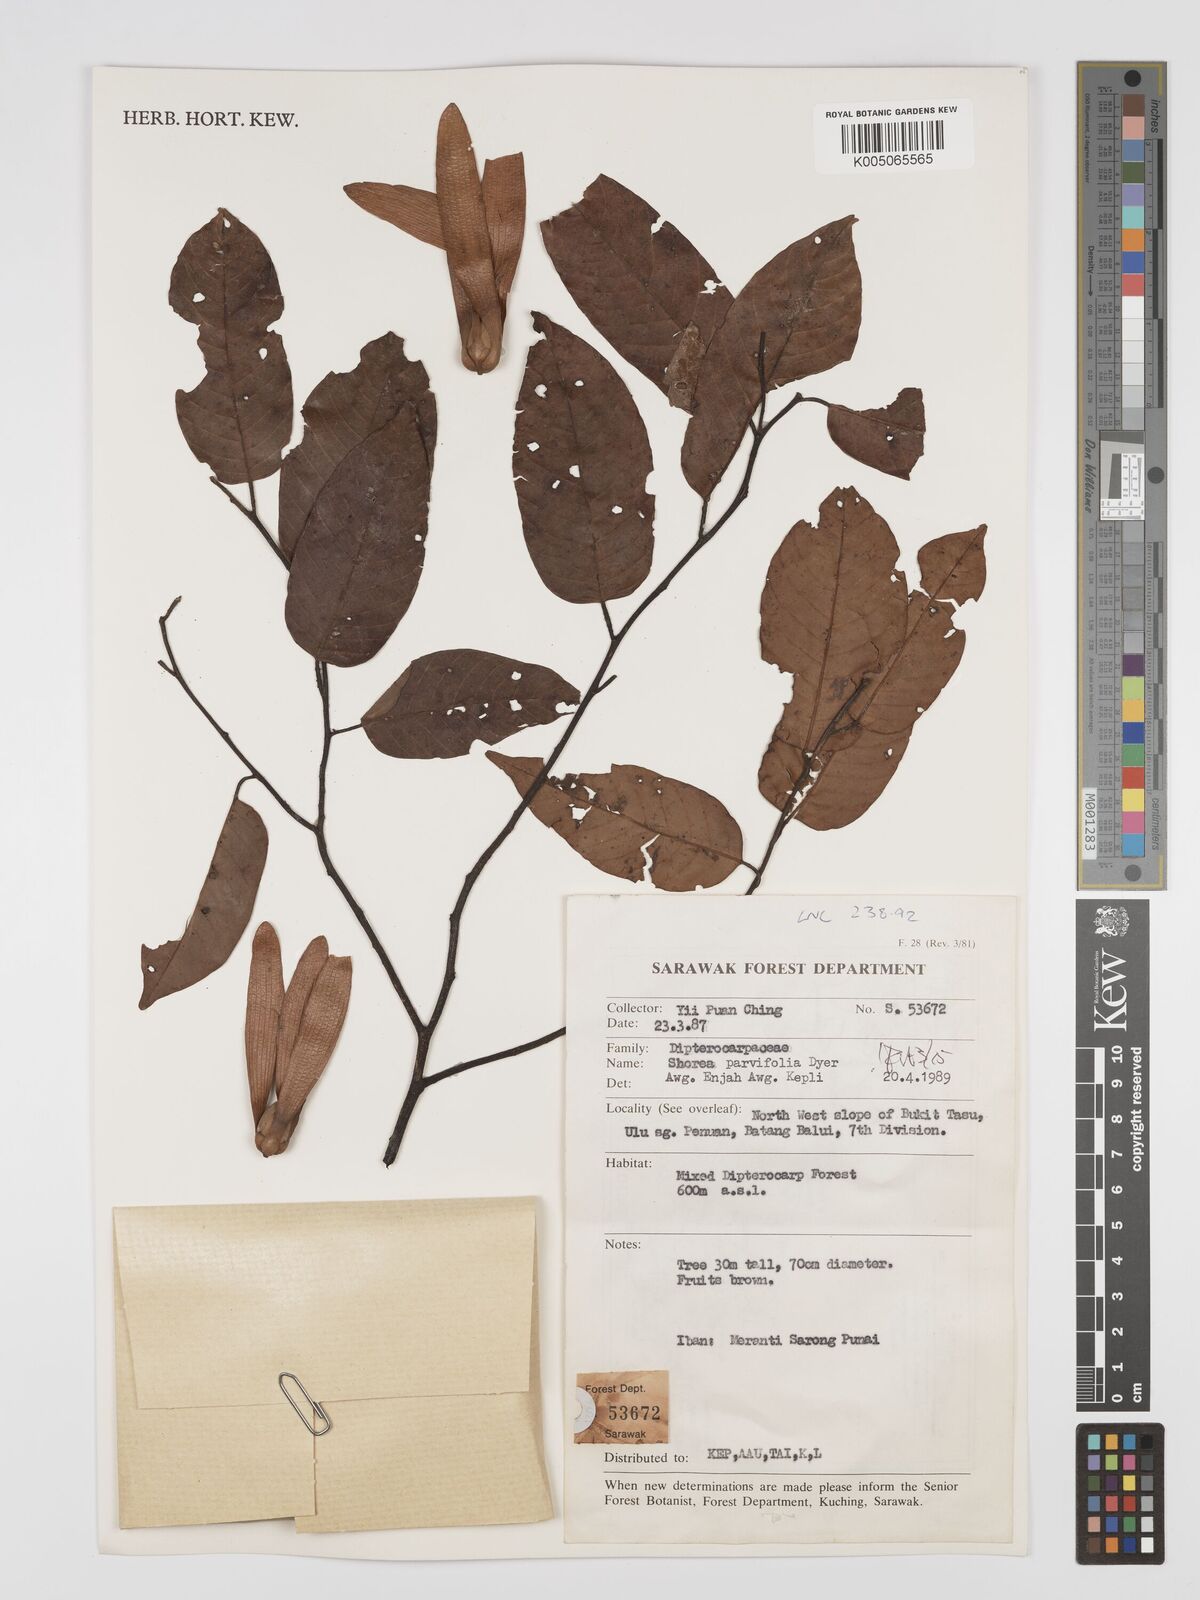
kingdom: Plantae
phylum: Tracheophyta
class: Magnoliopsida
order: Malvales
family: Dipterocarpaceae
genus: Shorea
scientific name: Shorea parvifolia
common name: Light red meranti
